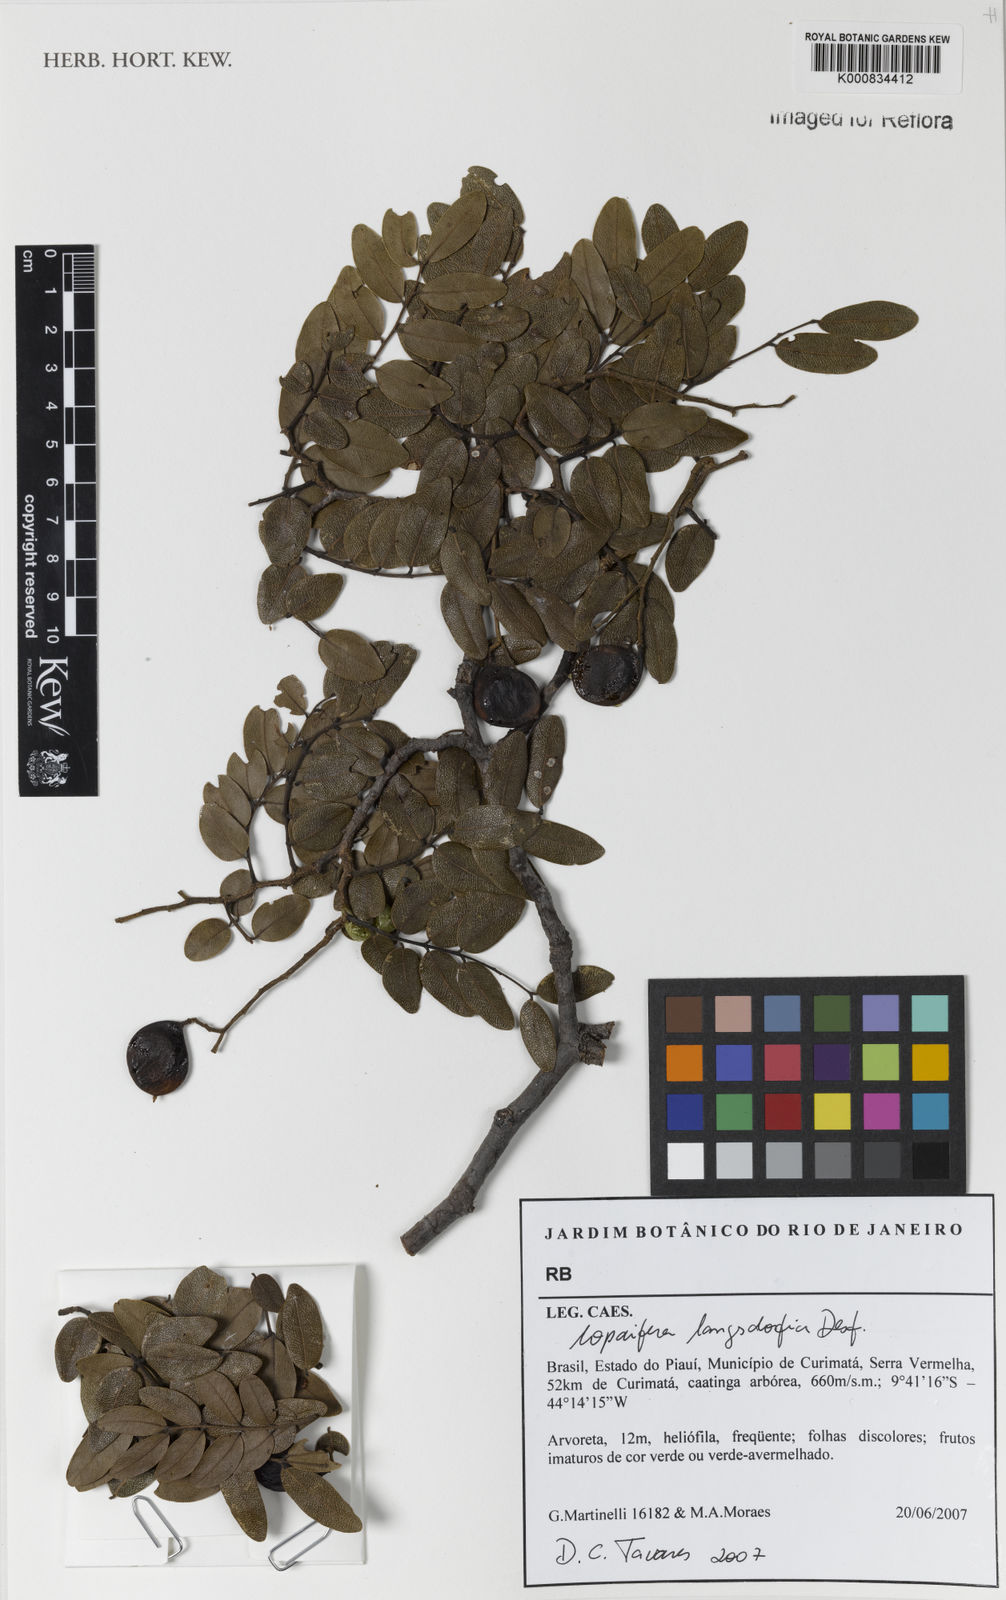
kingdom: Plantae
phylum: Tracheophyta
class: Magnoliopsida
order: Fabales
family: Fabaceae
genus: Copaifera
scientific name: Copaifera langsdorffii
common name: Brazilian diesel tree
